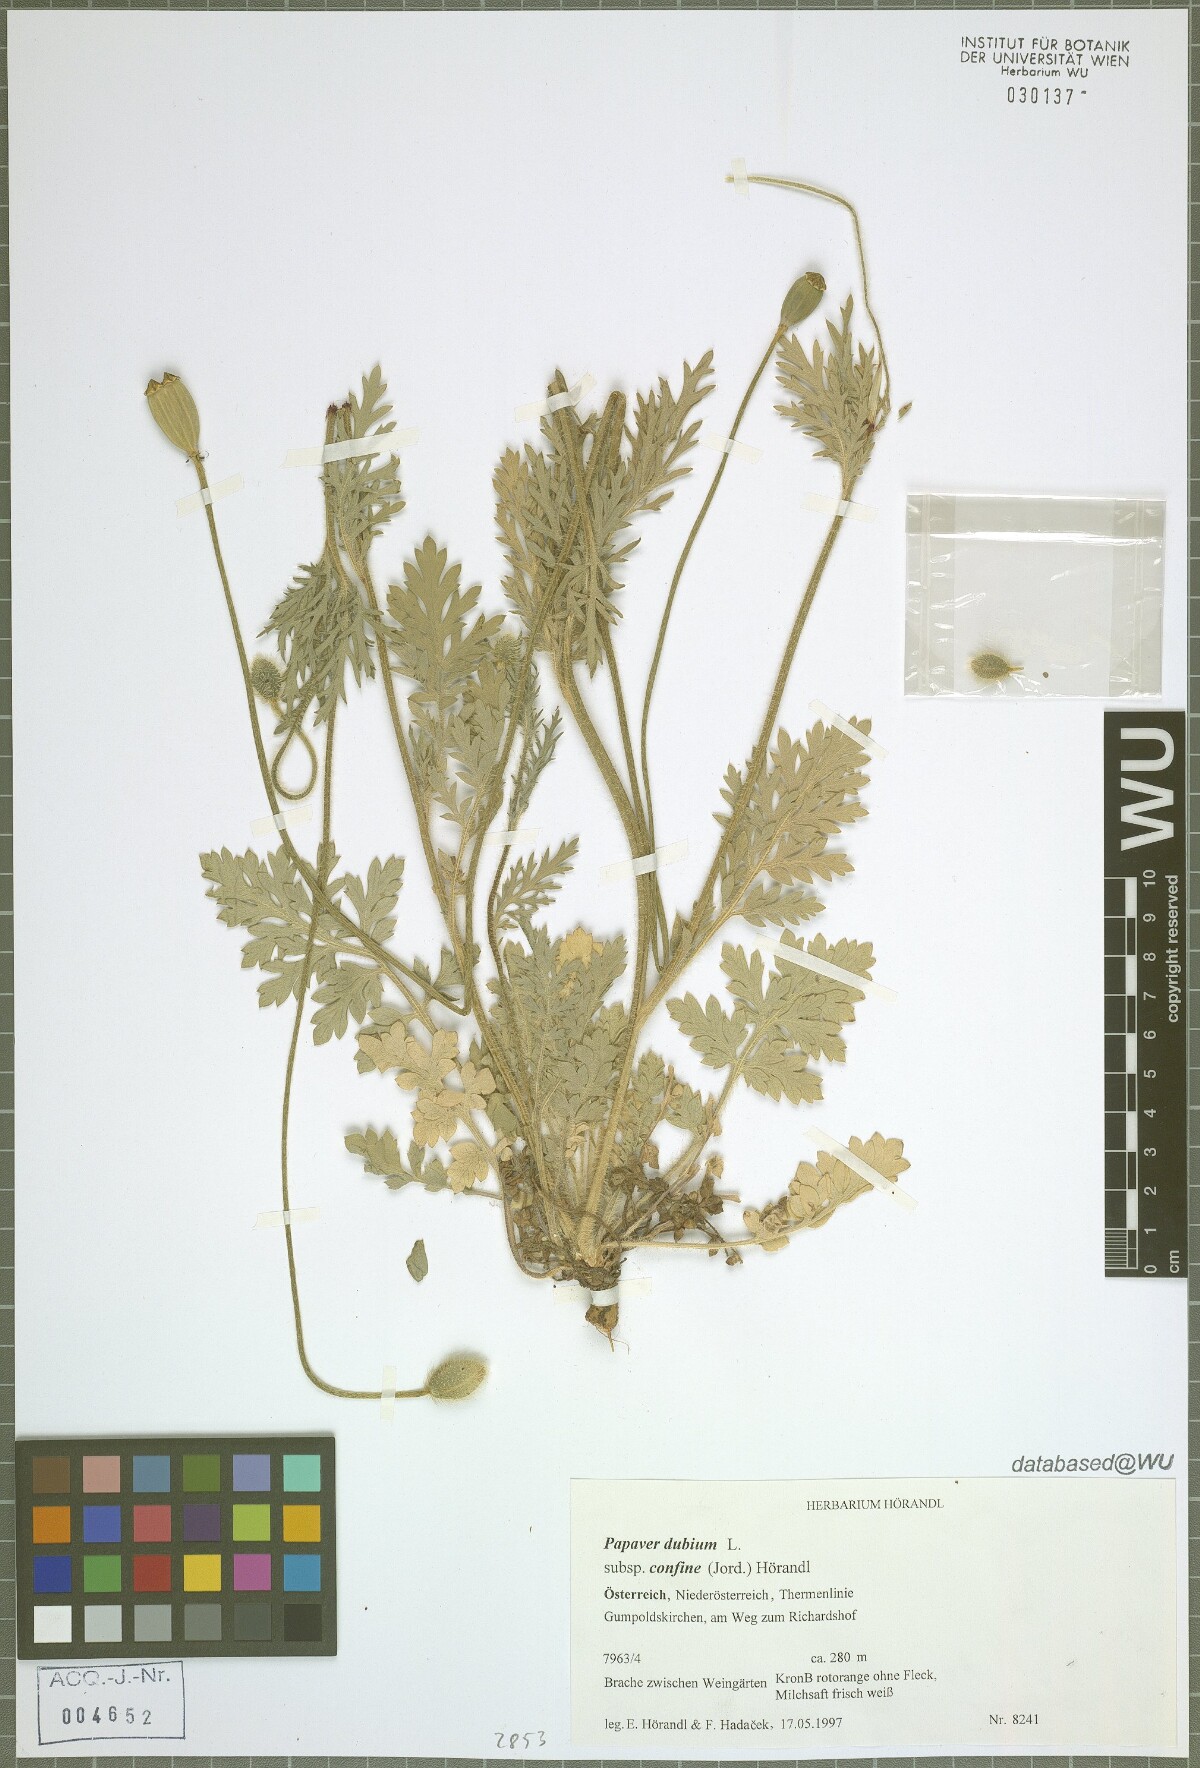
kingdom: Plantae
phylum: Tracheophyta
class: Magnoliopsida
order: Ranunculales
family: Papaveraceae
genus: Papaver
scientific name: Papaver confine
